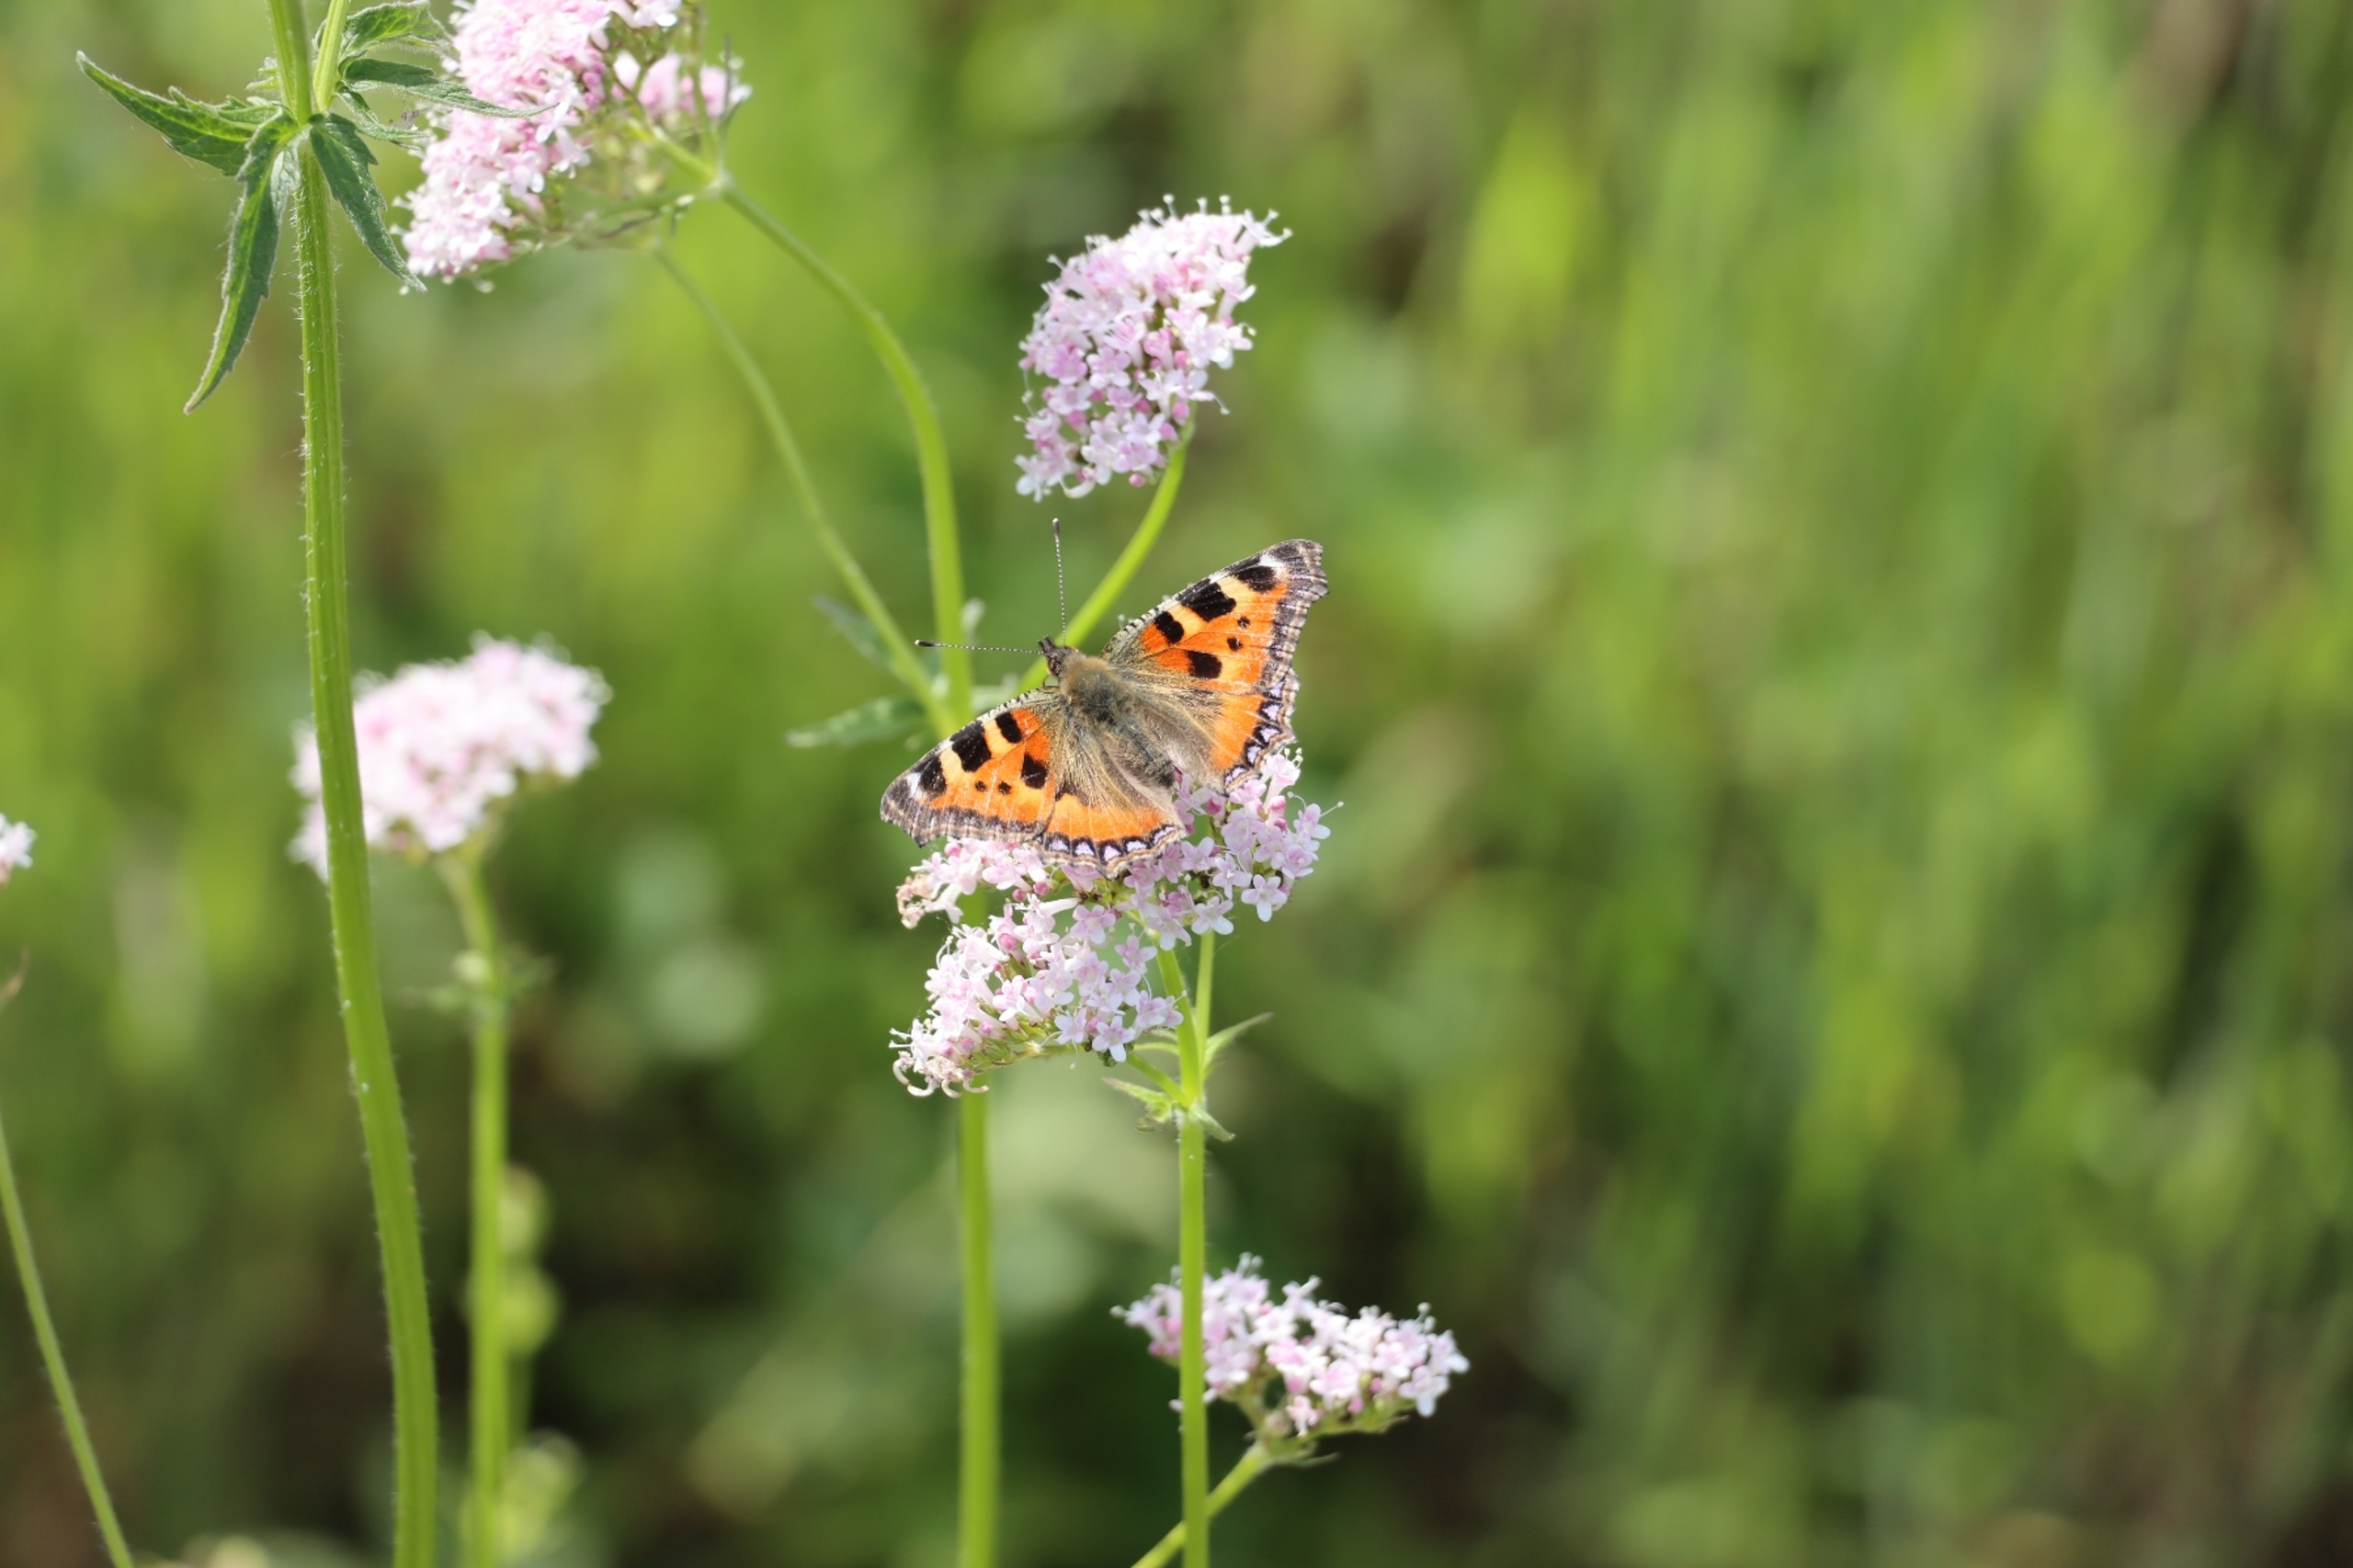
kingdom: Animalia
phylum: Arthropoda
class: Insecta
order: Lepidoptera
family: Nymphalidae
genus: Aglais
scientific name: Aglais urticae
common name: Nældens takvinge
